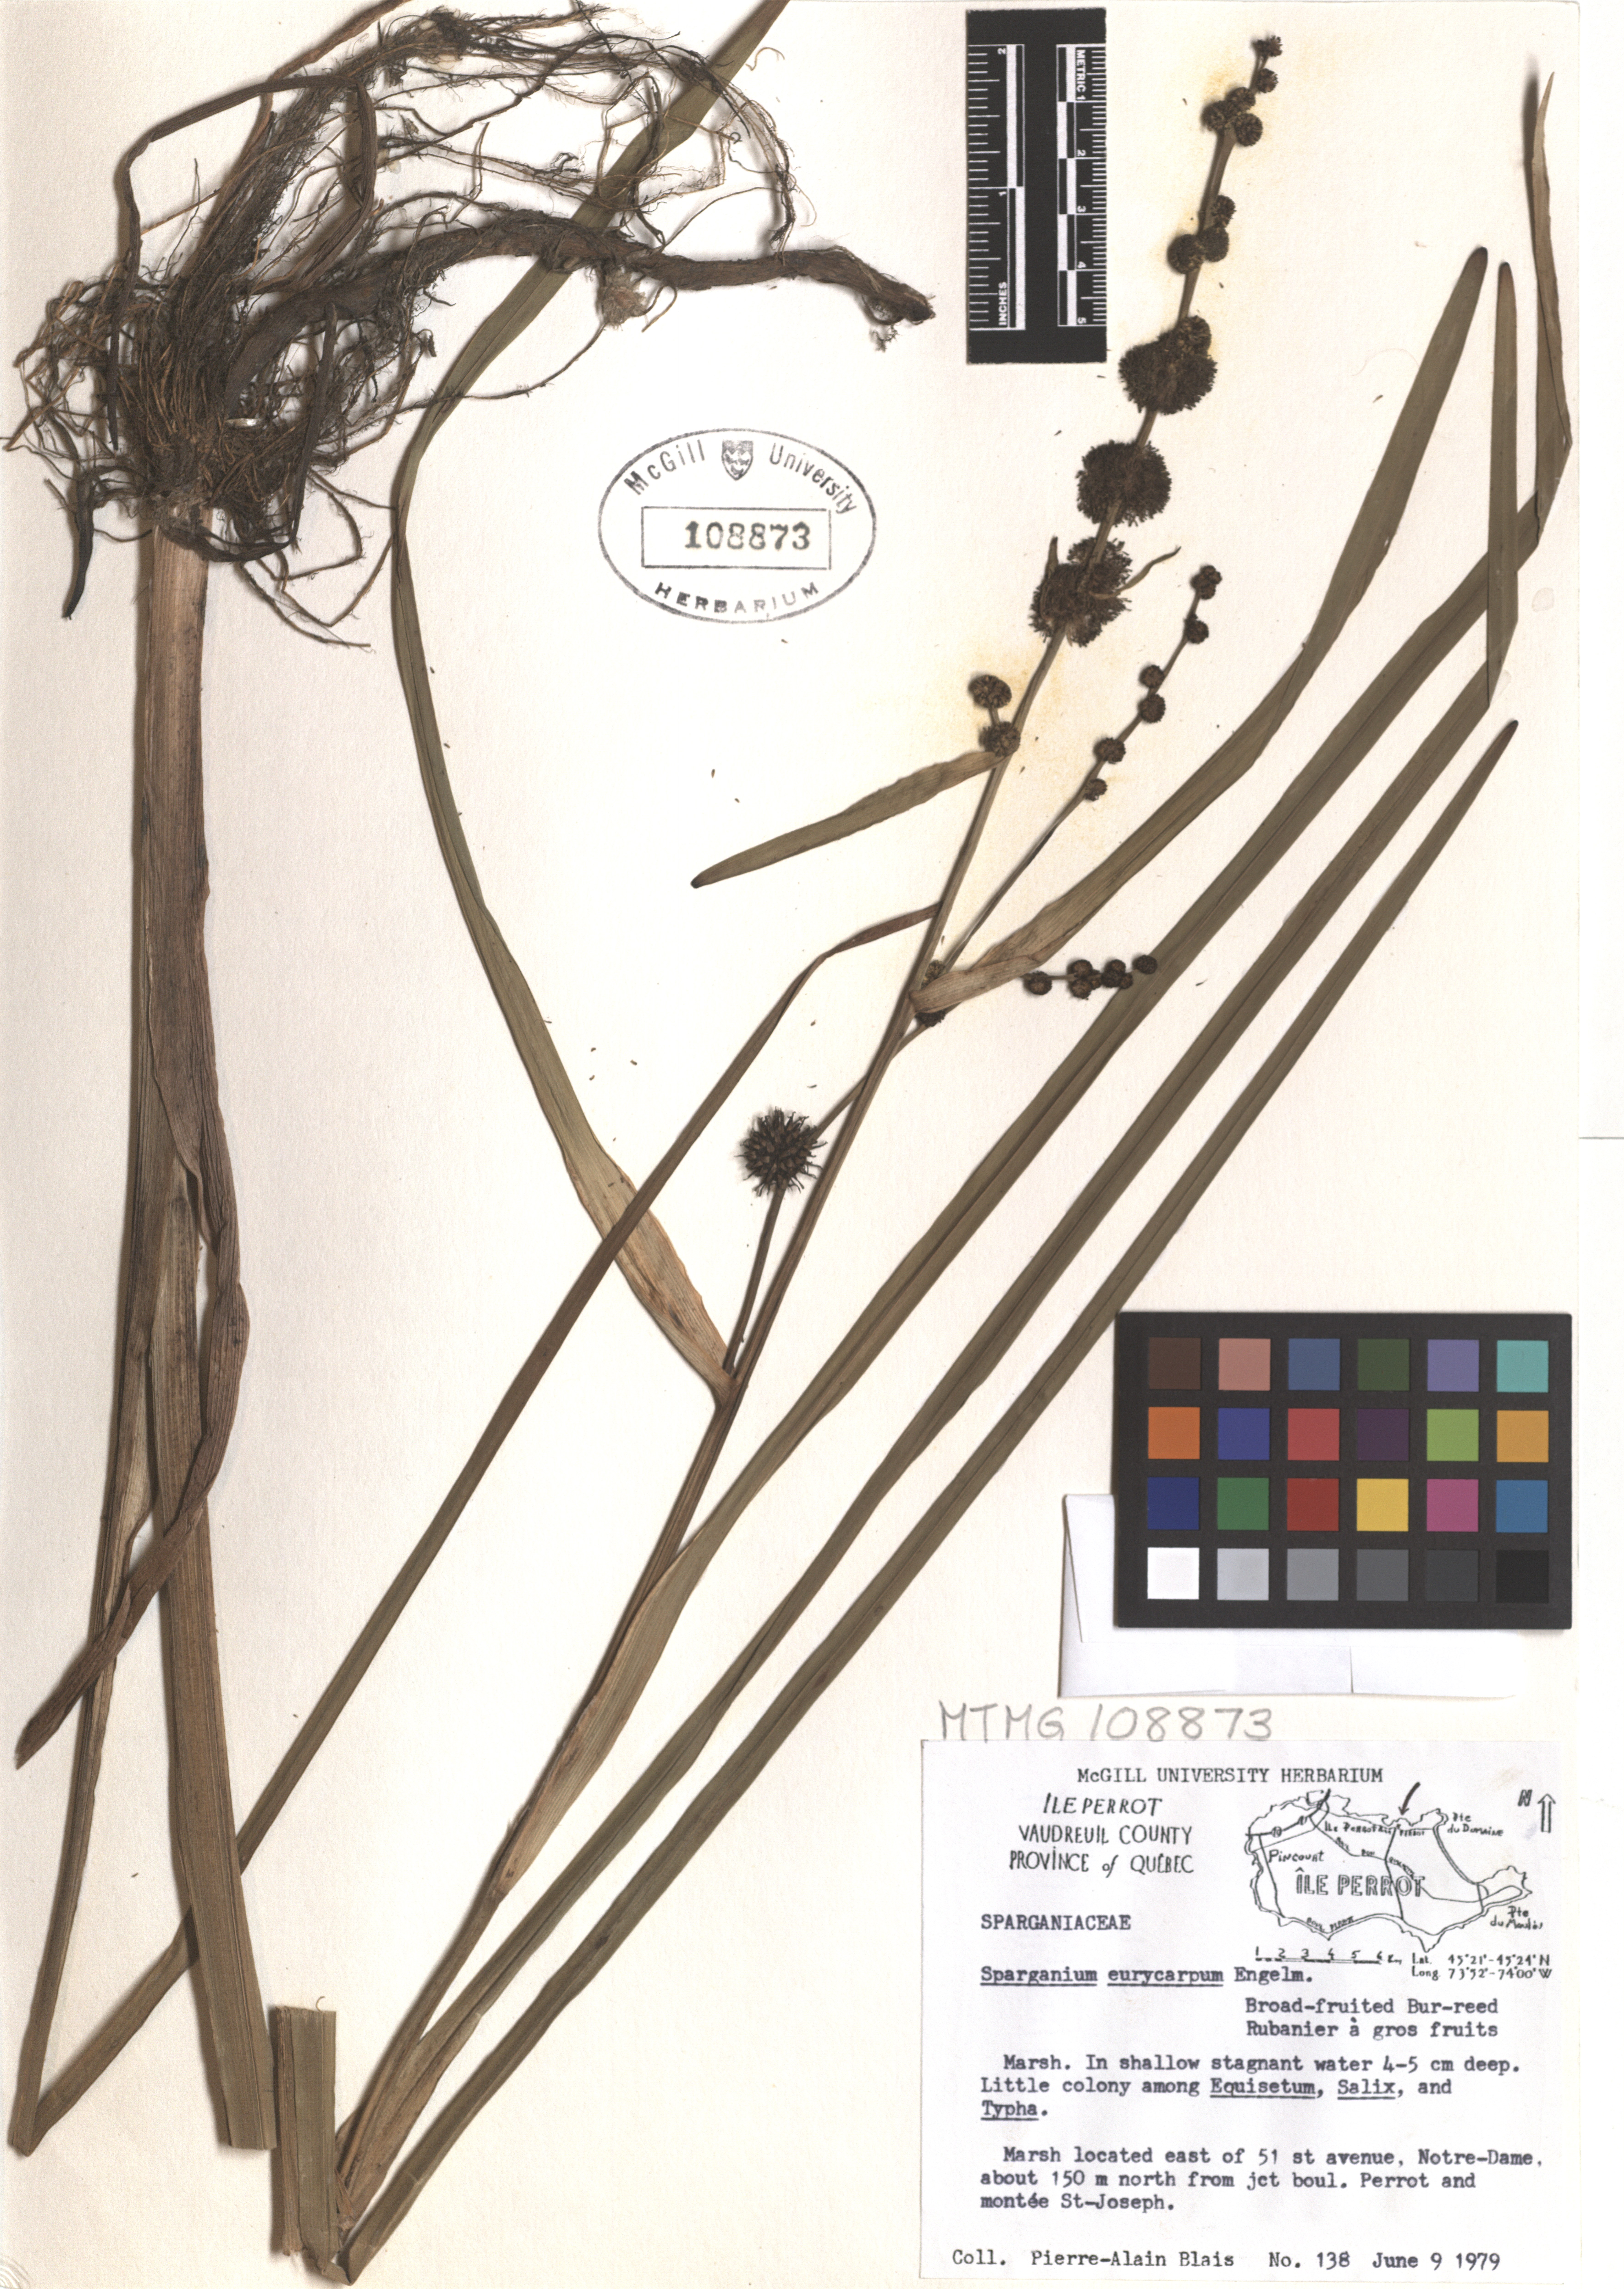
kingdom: Plantae
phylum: Tracheophyta
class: Liliopsida
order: Poales
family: Typhaceae
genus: Sparganium
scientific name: Sparganium eurycarpum
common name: Broad-fruited burreed
